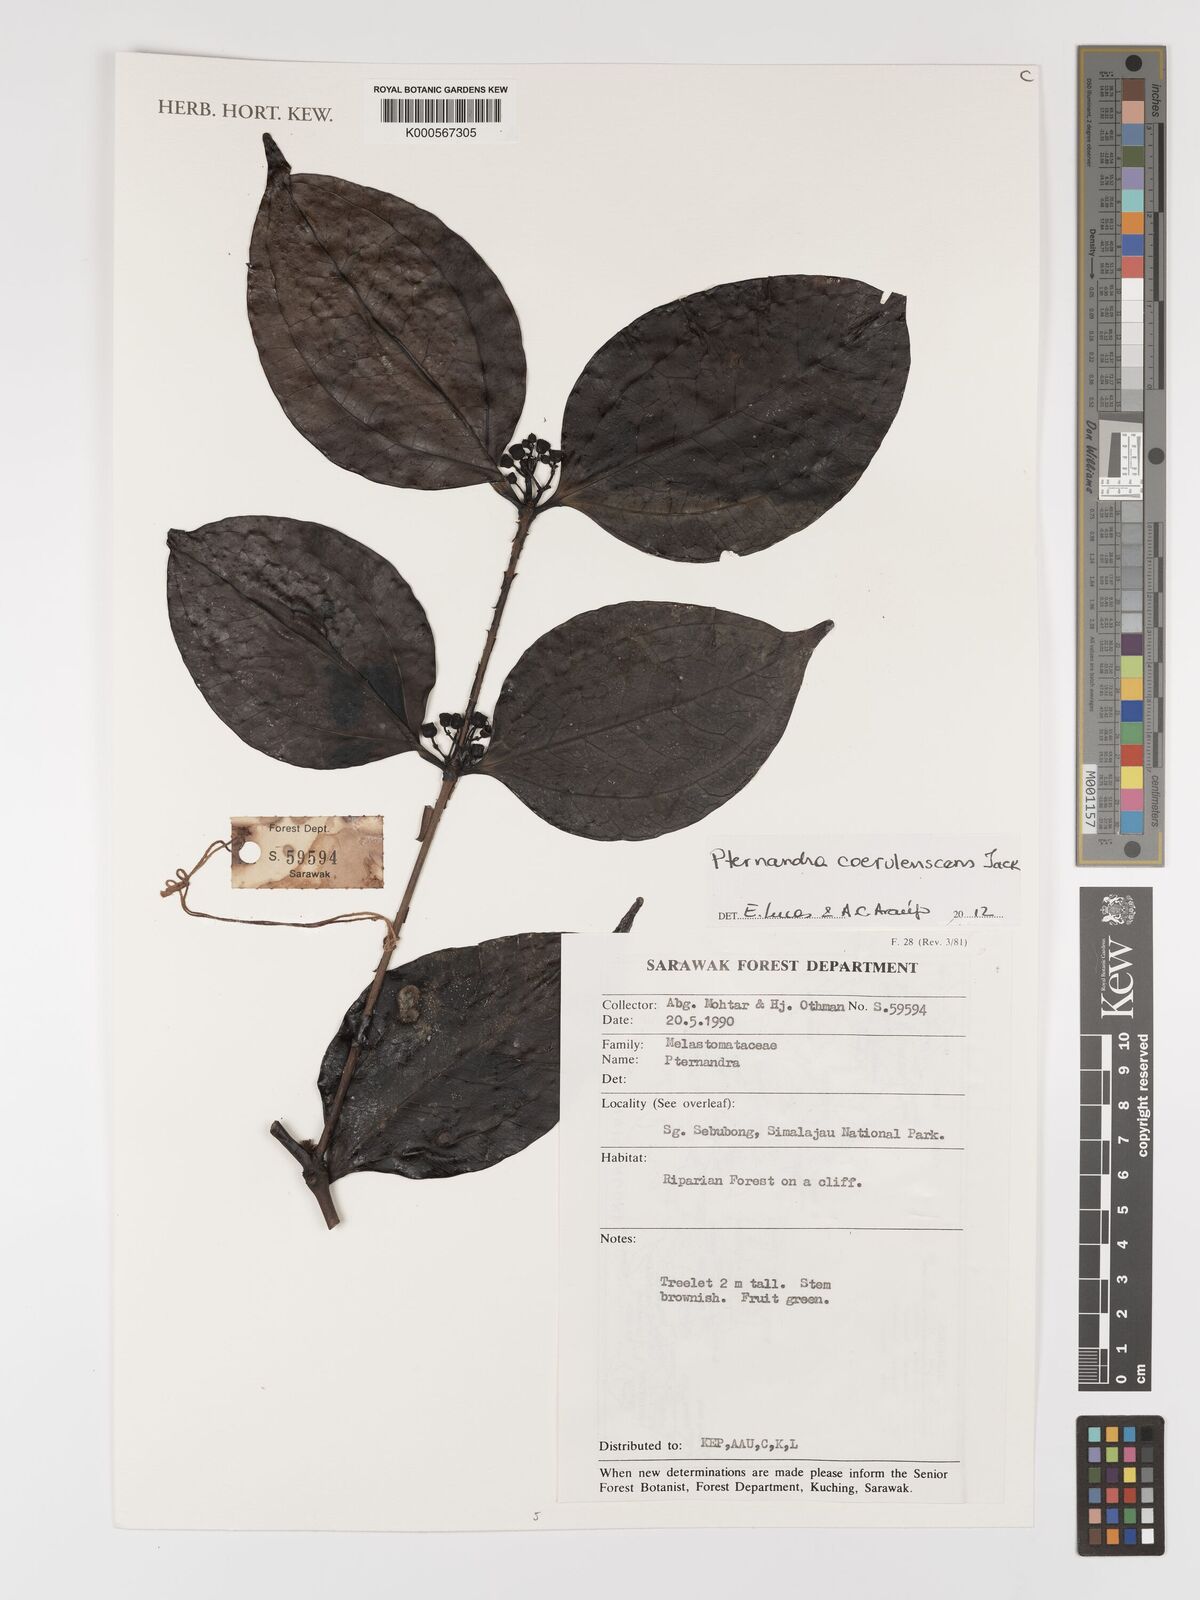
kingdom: Plantae
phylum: Tracheophyta
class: Magnoliopsida
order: Myrtales
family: Melastomataceae
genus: Pternandra
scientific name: Pternandra
